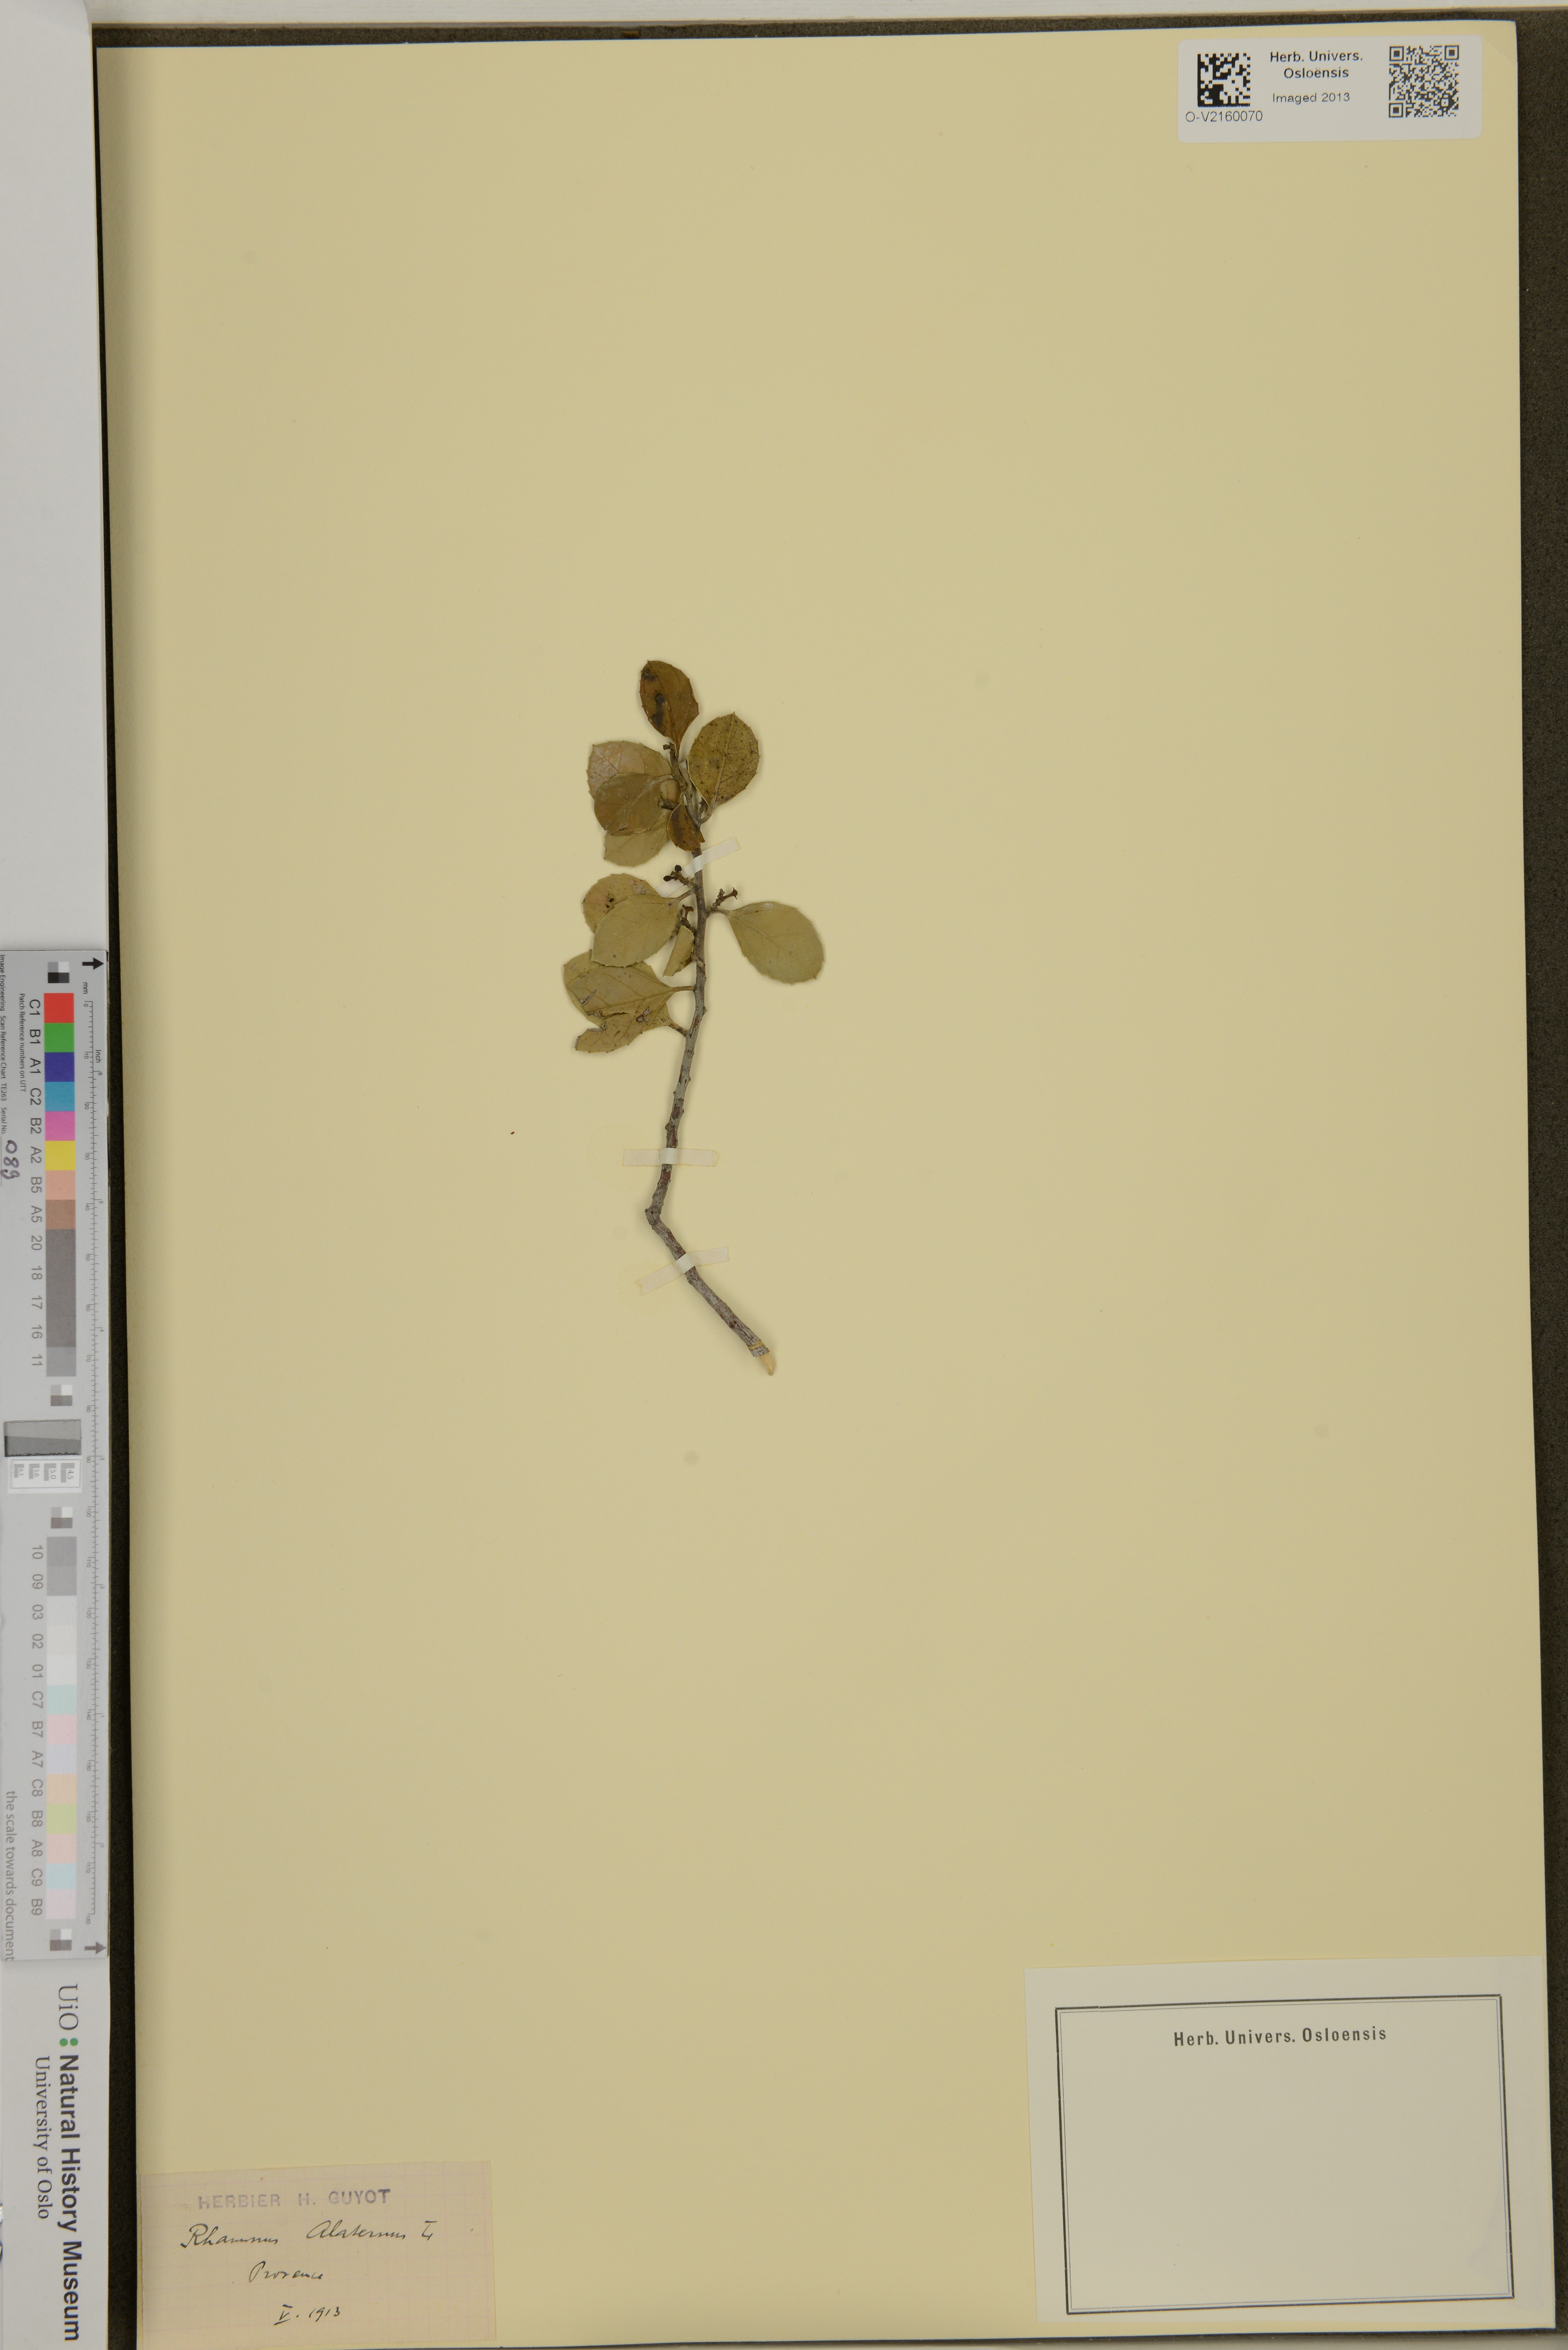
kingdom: Plantae
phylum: Tracheophyta
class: Magnoliopsida
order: Rosales
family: Rhamnaceae
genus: Rhamnus
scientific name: Rhamnus alaternus
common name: Mediterranean buckthorn
